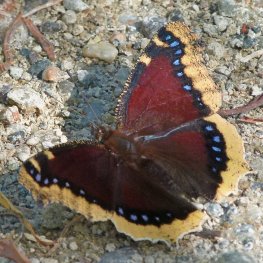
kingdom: Animalia
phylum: Arthropoda
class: Insecta
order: Lepidoptera
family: Nymphalidae
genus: Nymphalis
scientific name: Nymphalis antiopa
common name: Mourning Cloak
